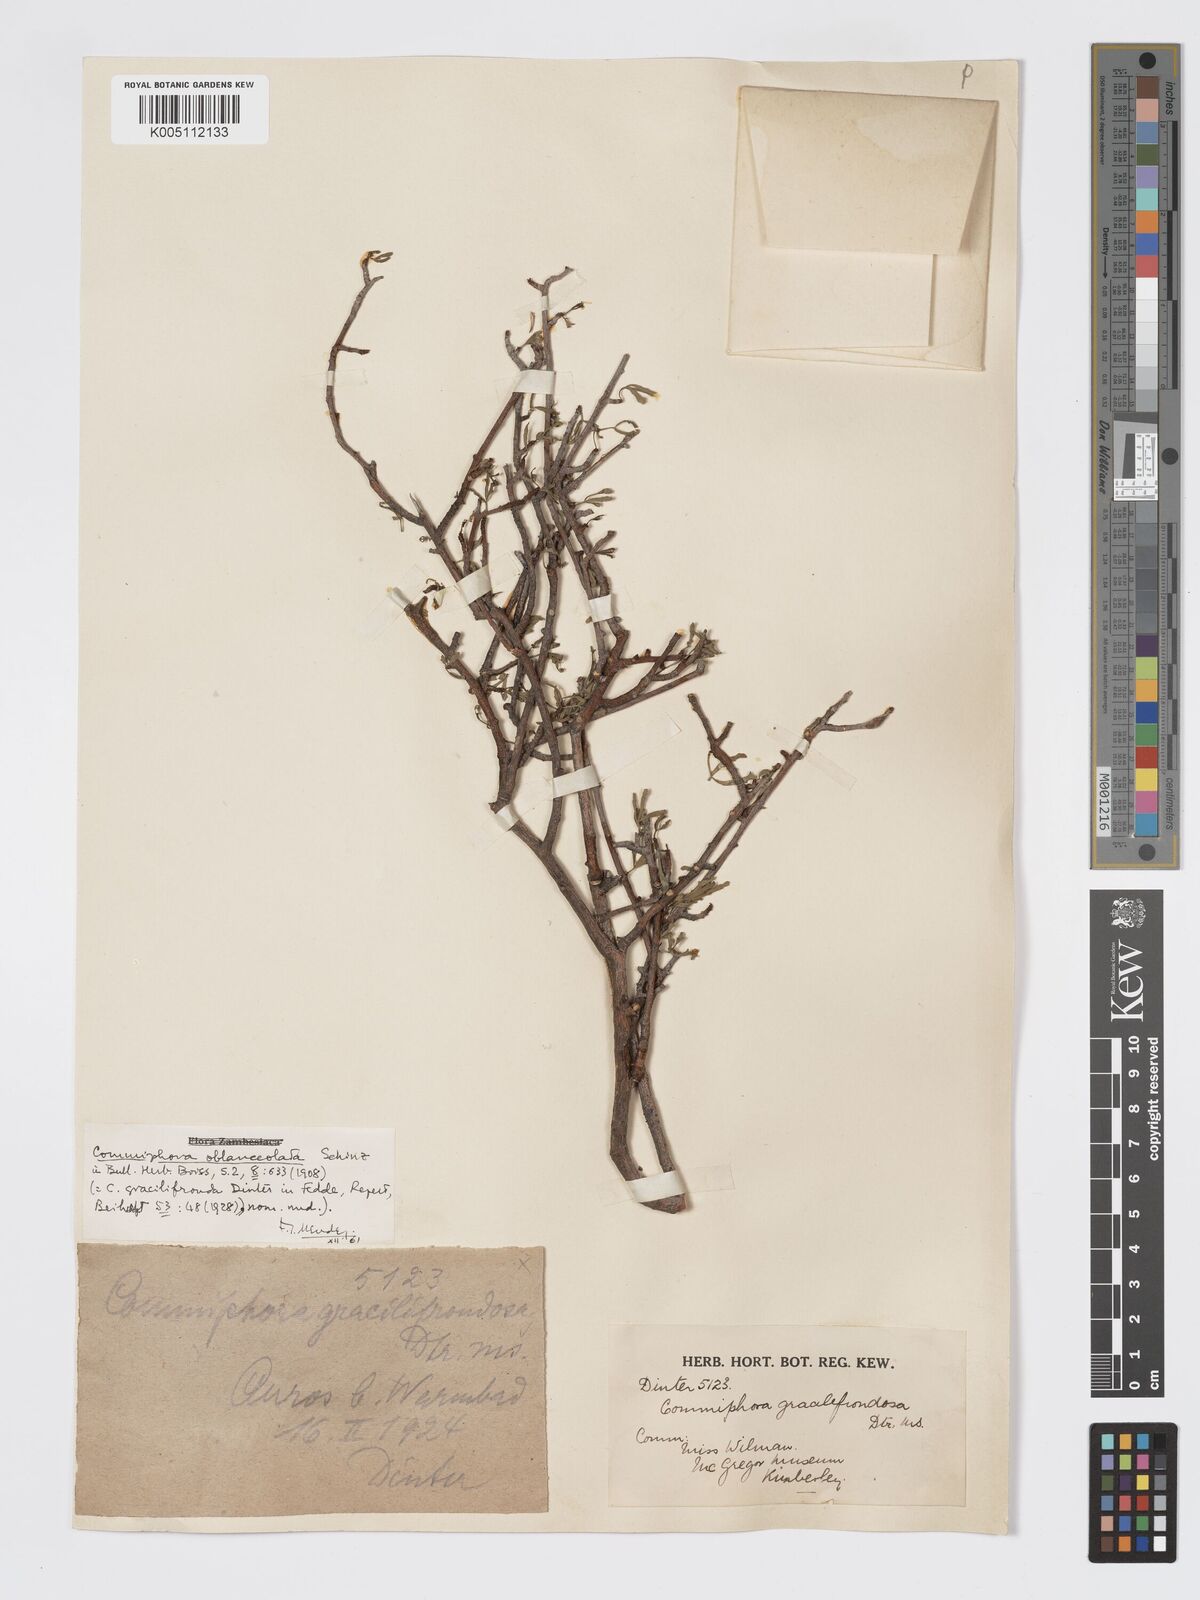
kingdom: Plantae
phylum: Tracheophyta
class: Magnoliopsida
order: Sapindales
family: Burseraceae
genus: Commiphora
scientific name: Commiphora gracilifrondosa
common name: Karee-leaved commiphora
